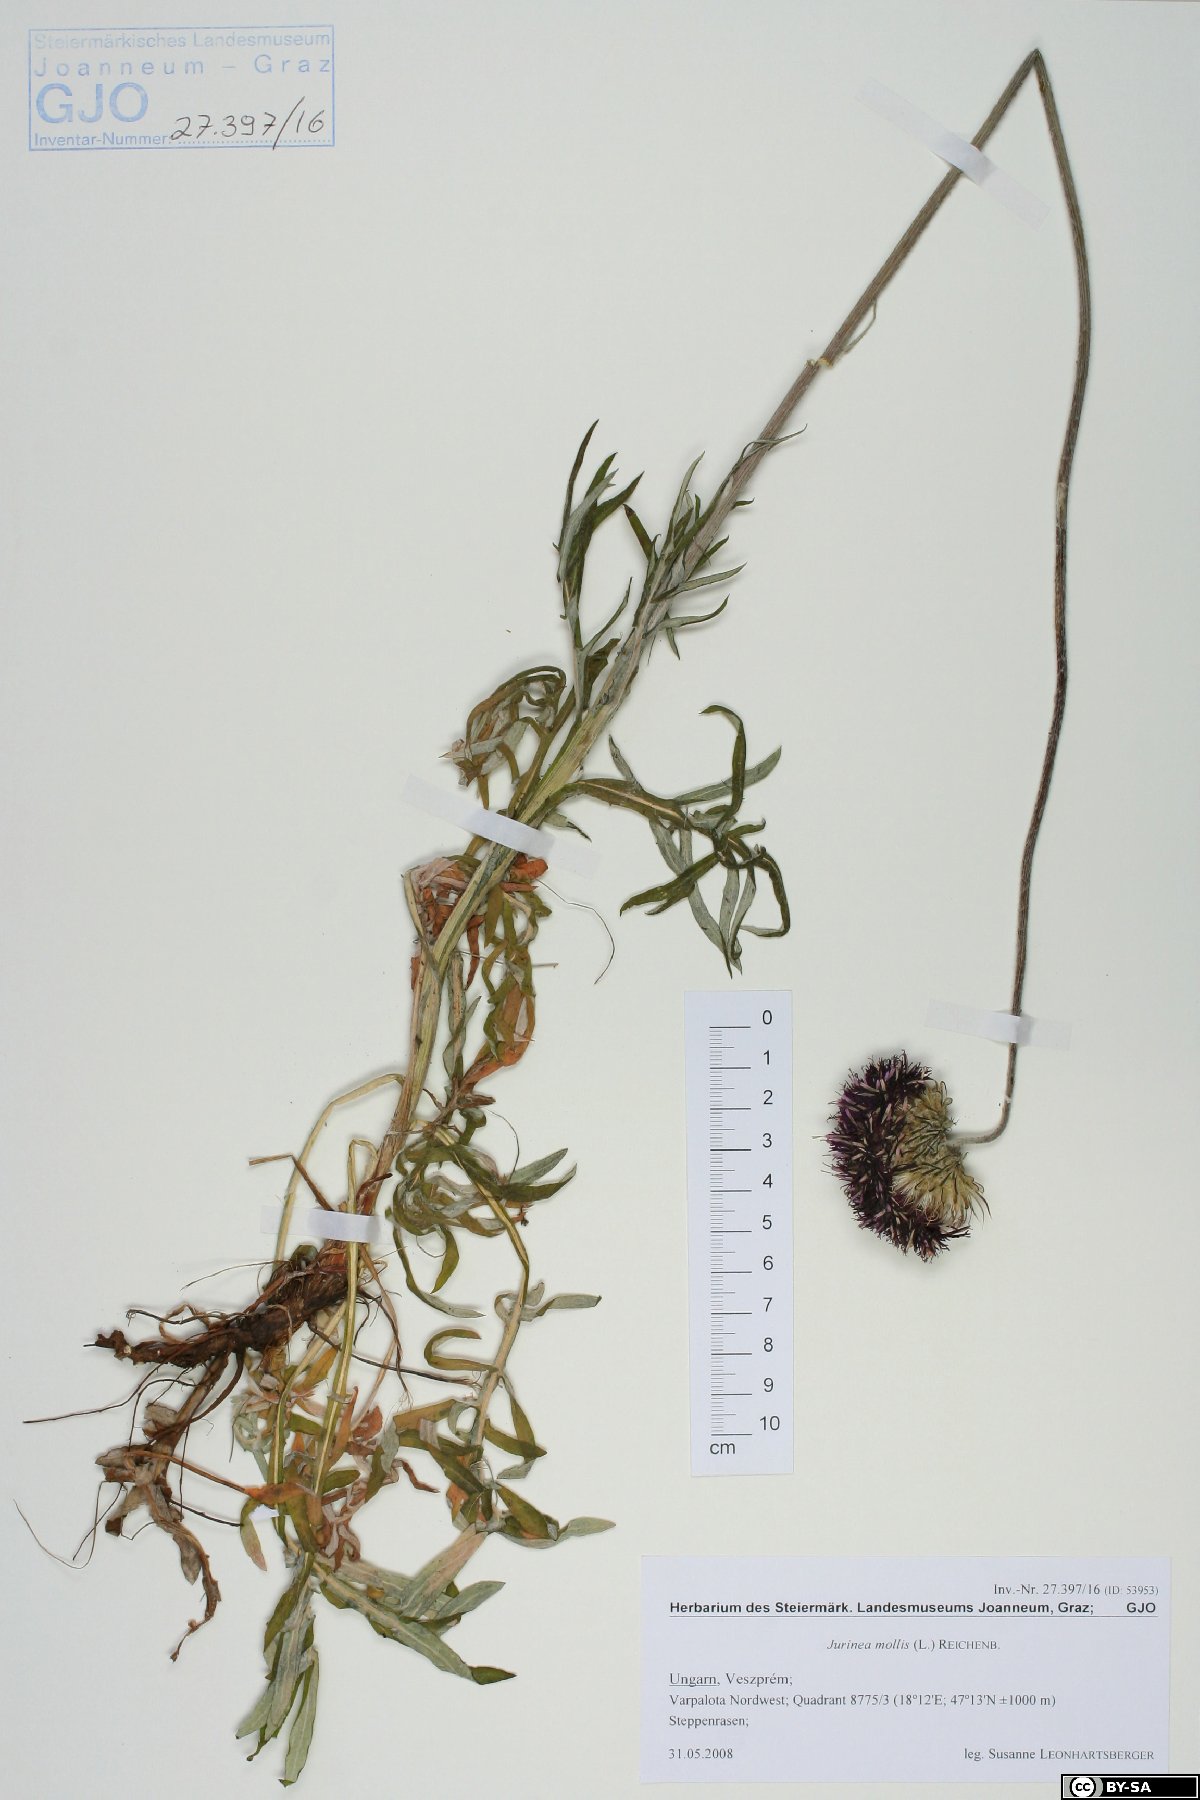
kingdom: Plantae
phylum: Tracheophyta
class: Magnoliopsida
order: Asterales
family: Asteraceae
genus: Jurinea
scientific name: Jurinea mollis
